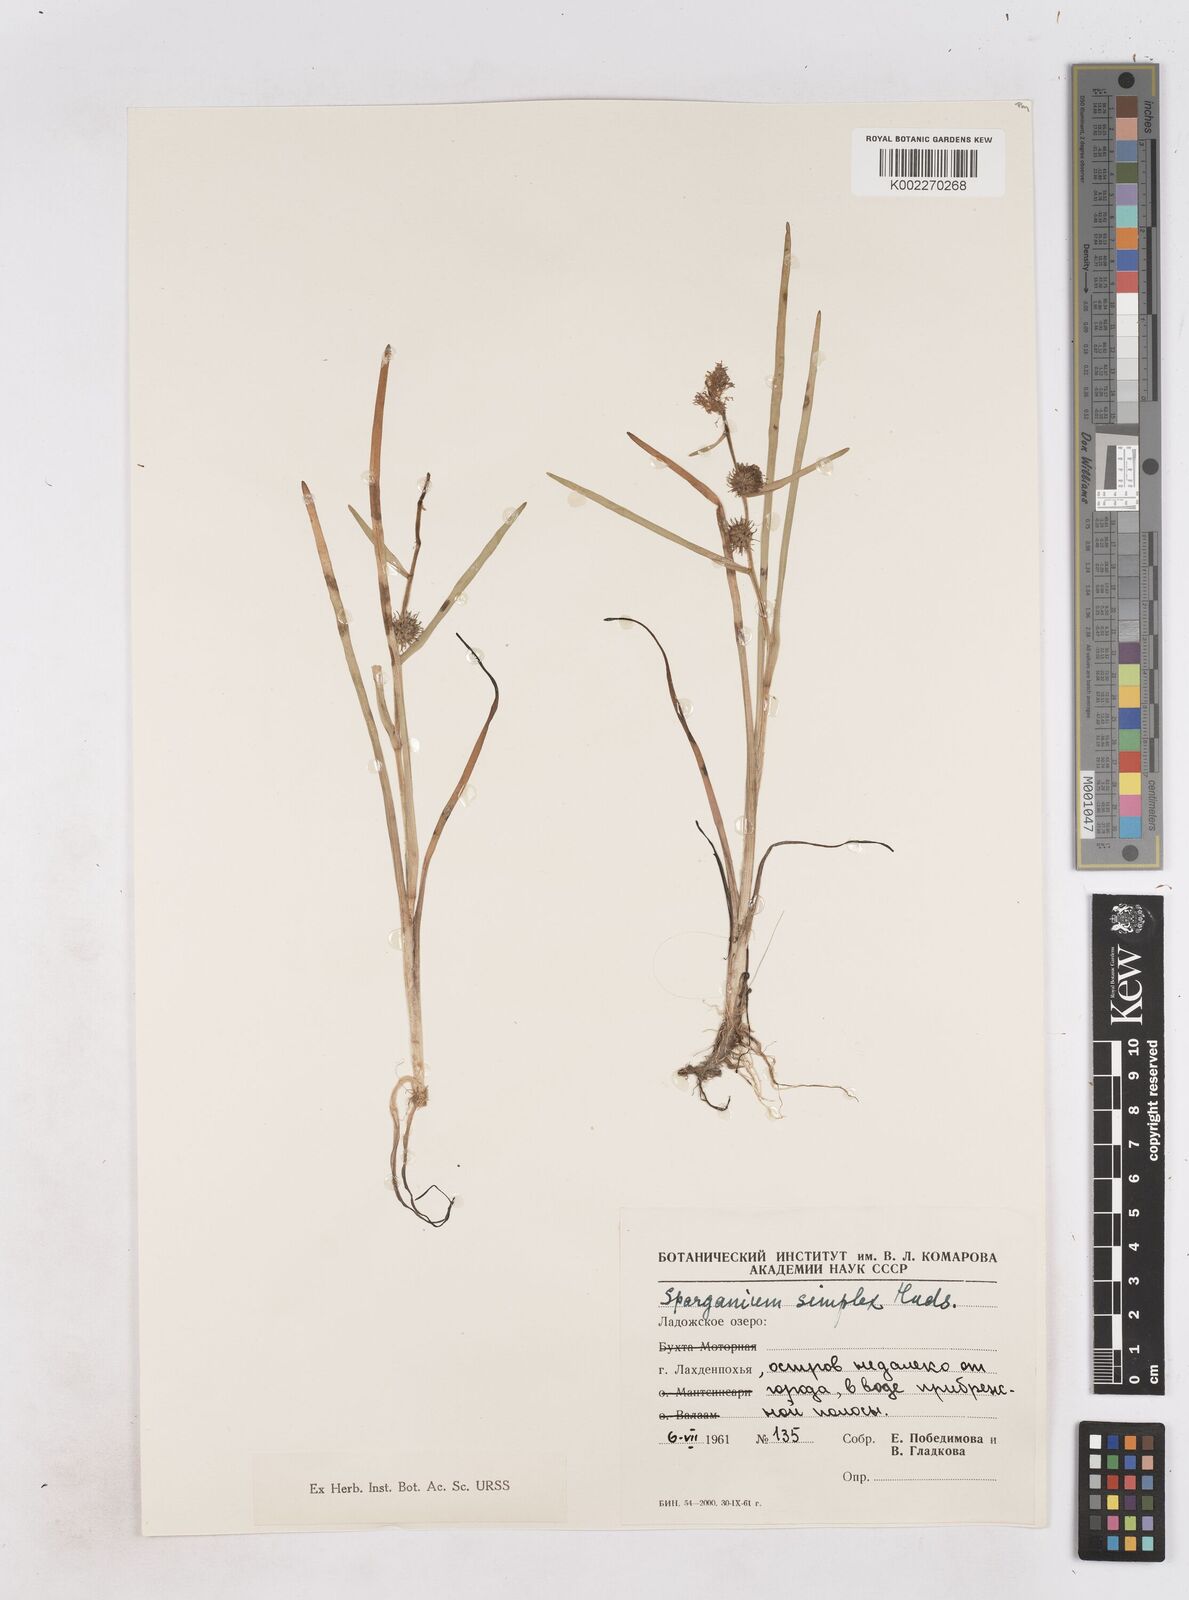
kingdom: Plantae
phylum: Tracheophyta
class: Liliopsida
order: Poales
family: Typhaceae
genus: Sparganium
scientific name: Sparganium emersum
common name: Unbranched bur-reed
